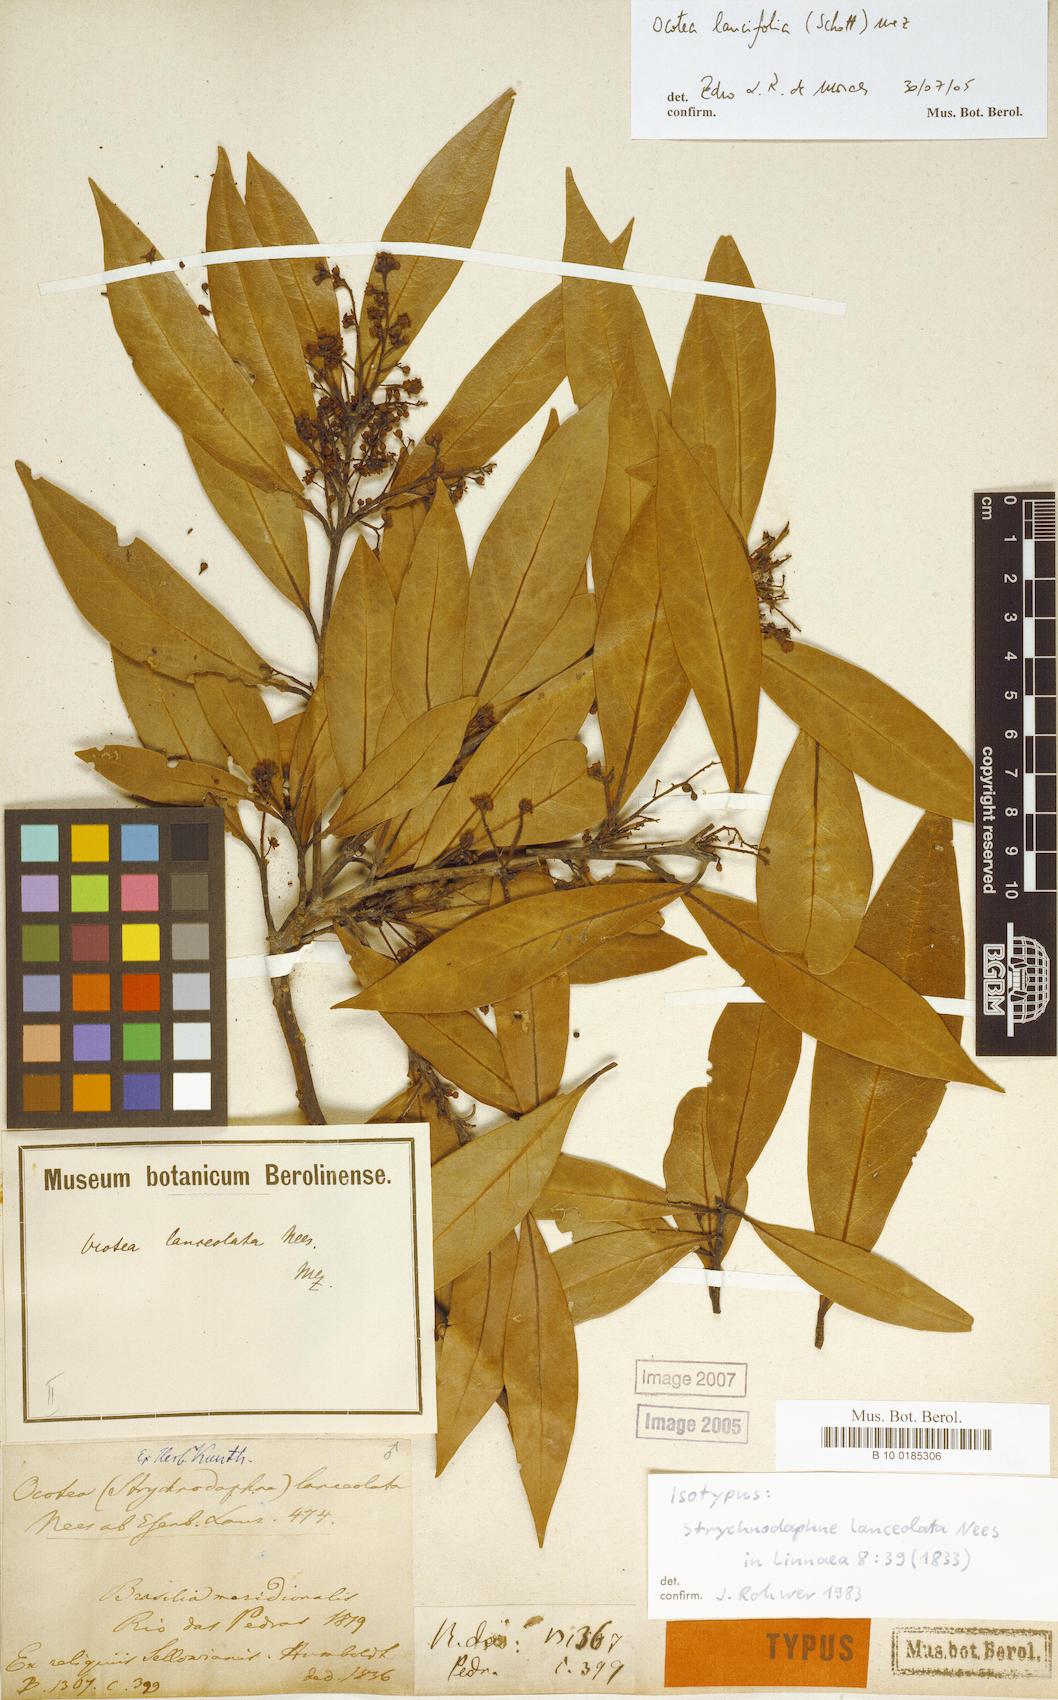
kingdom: Plantae
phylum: Tracheophyta
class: Magnoliopsida
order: Laurales
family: Lauraceae
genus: Ocotea
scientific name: Ocotea lancifolia
